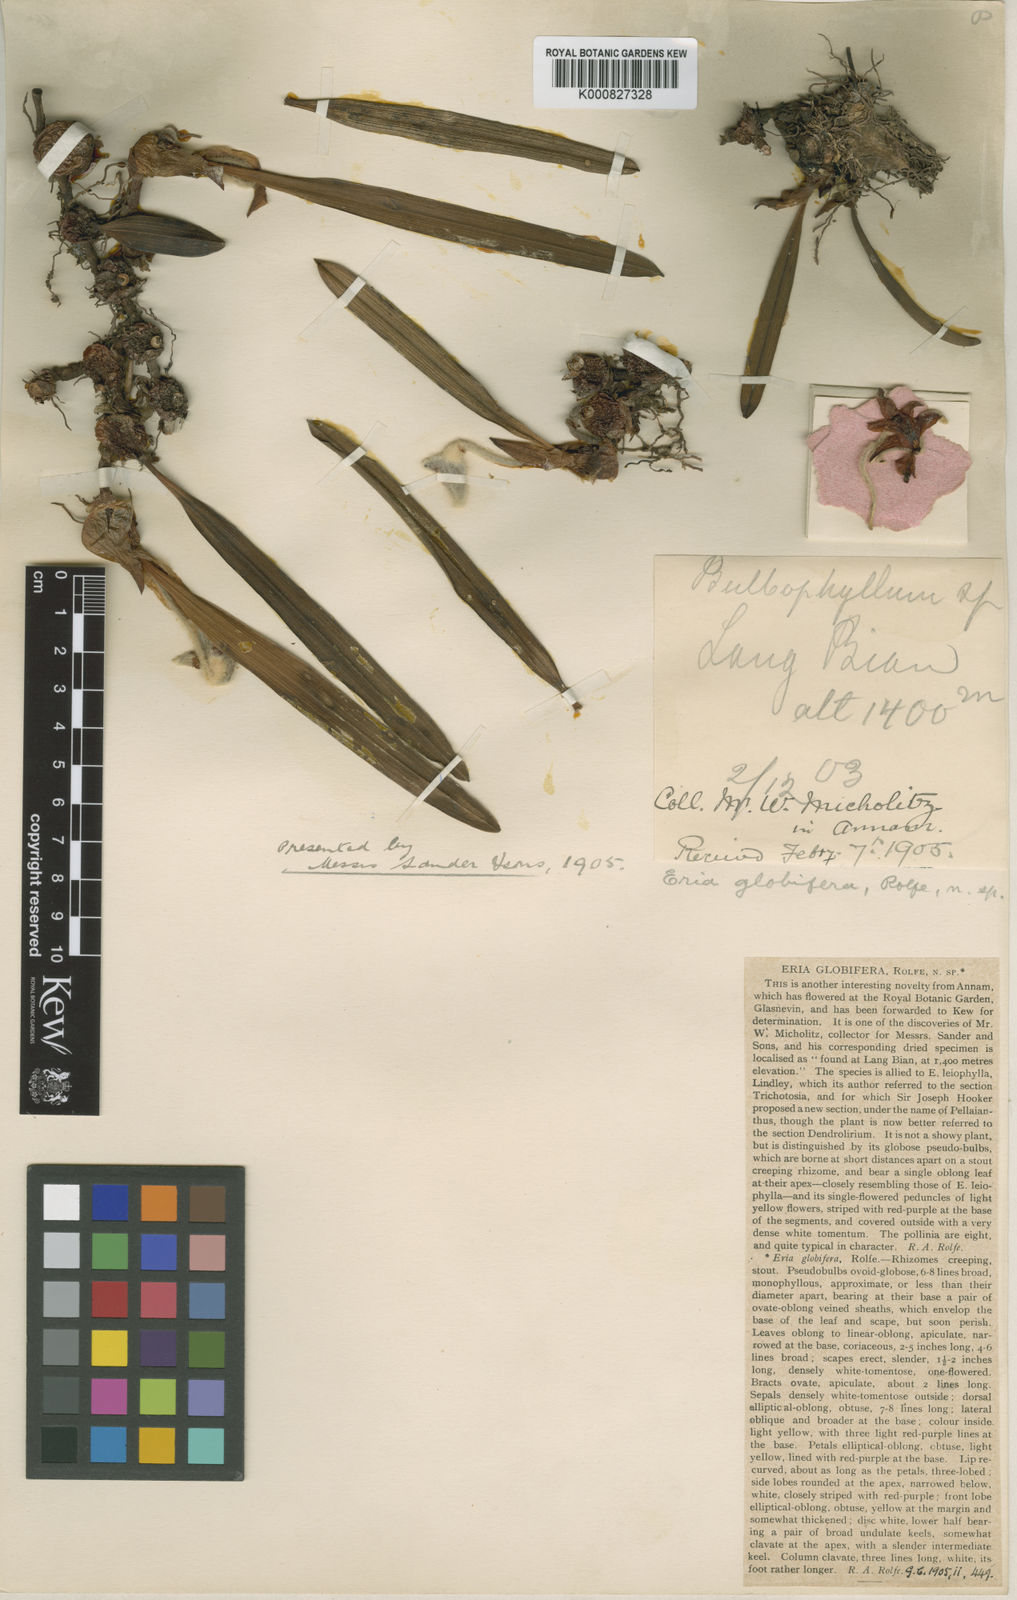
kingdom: Plantae
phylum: Tracheophyta
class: Liliopsida
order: Asparagales
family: Orchidaceae
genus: Campanulorchis
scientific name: Campanulorchis globifera
